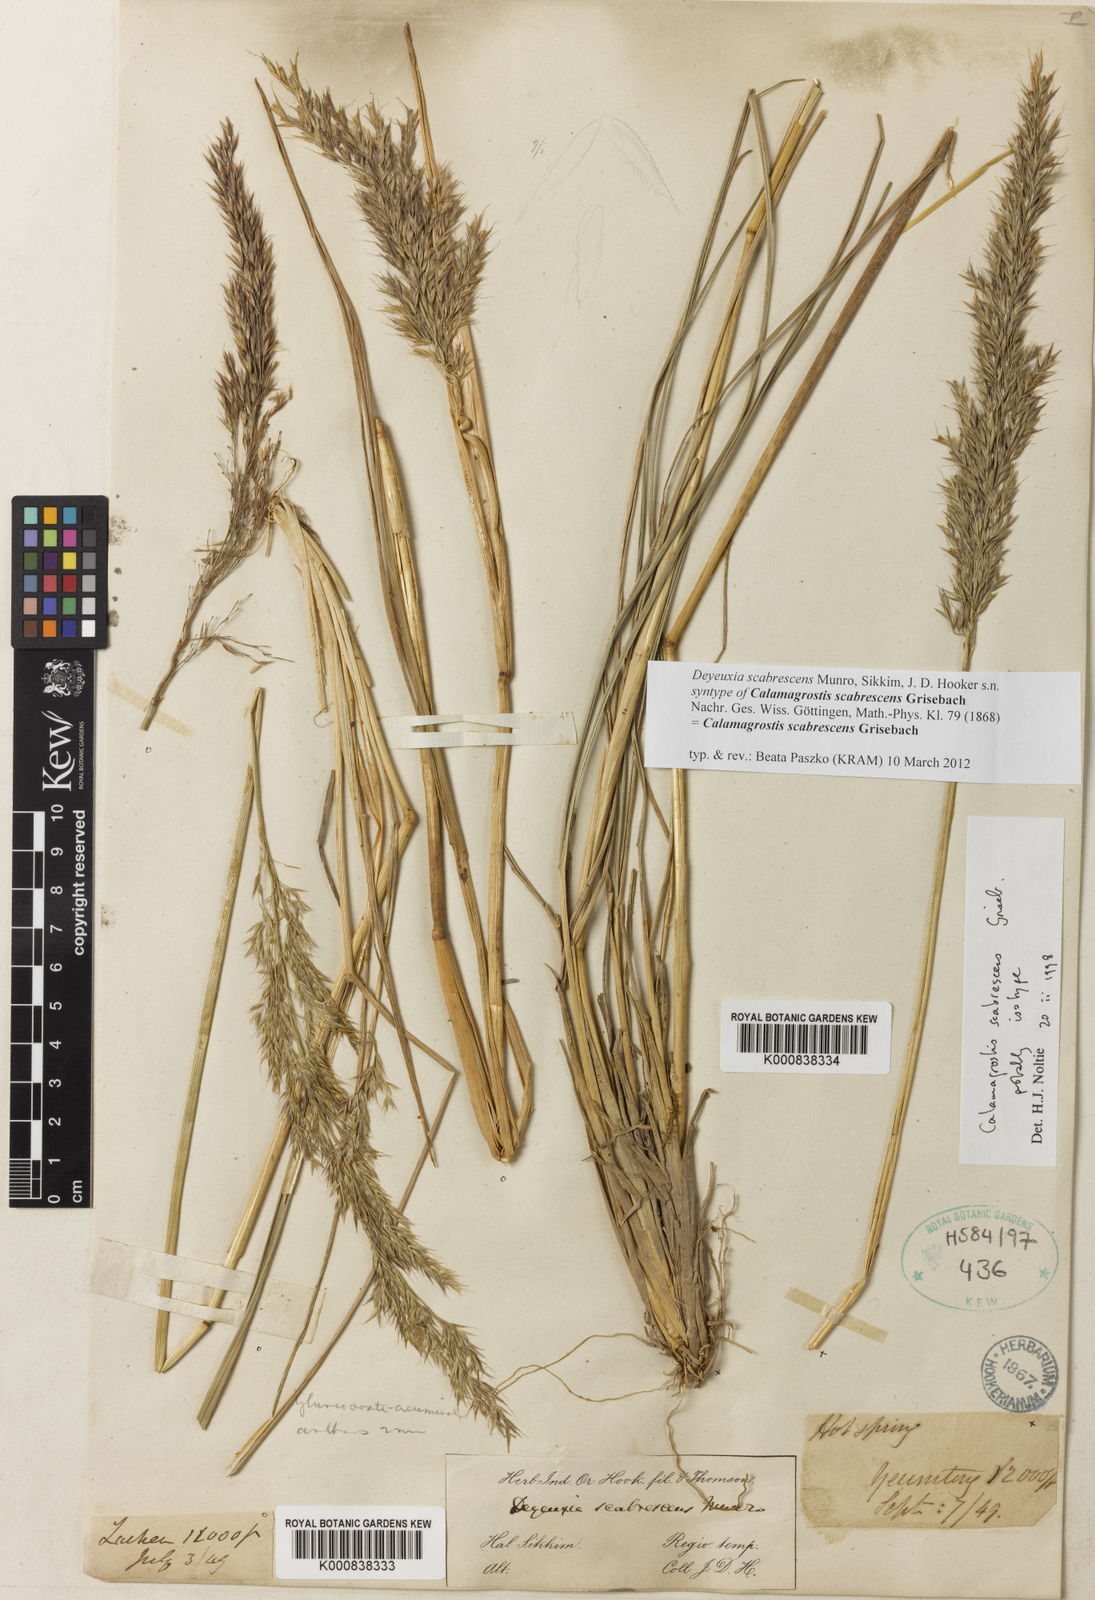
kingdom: Plantae
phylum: Tracheophyta
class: Liliopsida
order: Poales
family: Poaceae
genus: Calamagrostis
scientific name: Calamagrostis scabrescens
